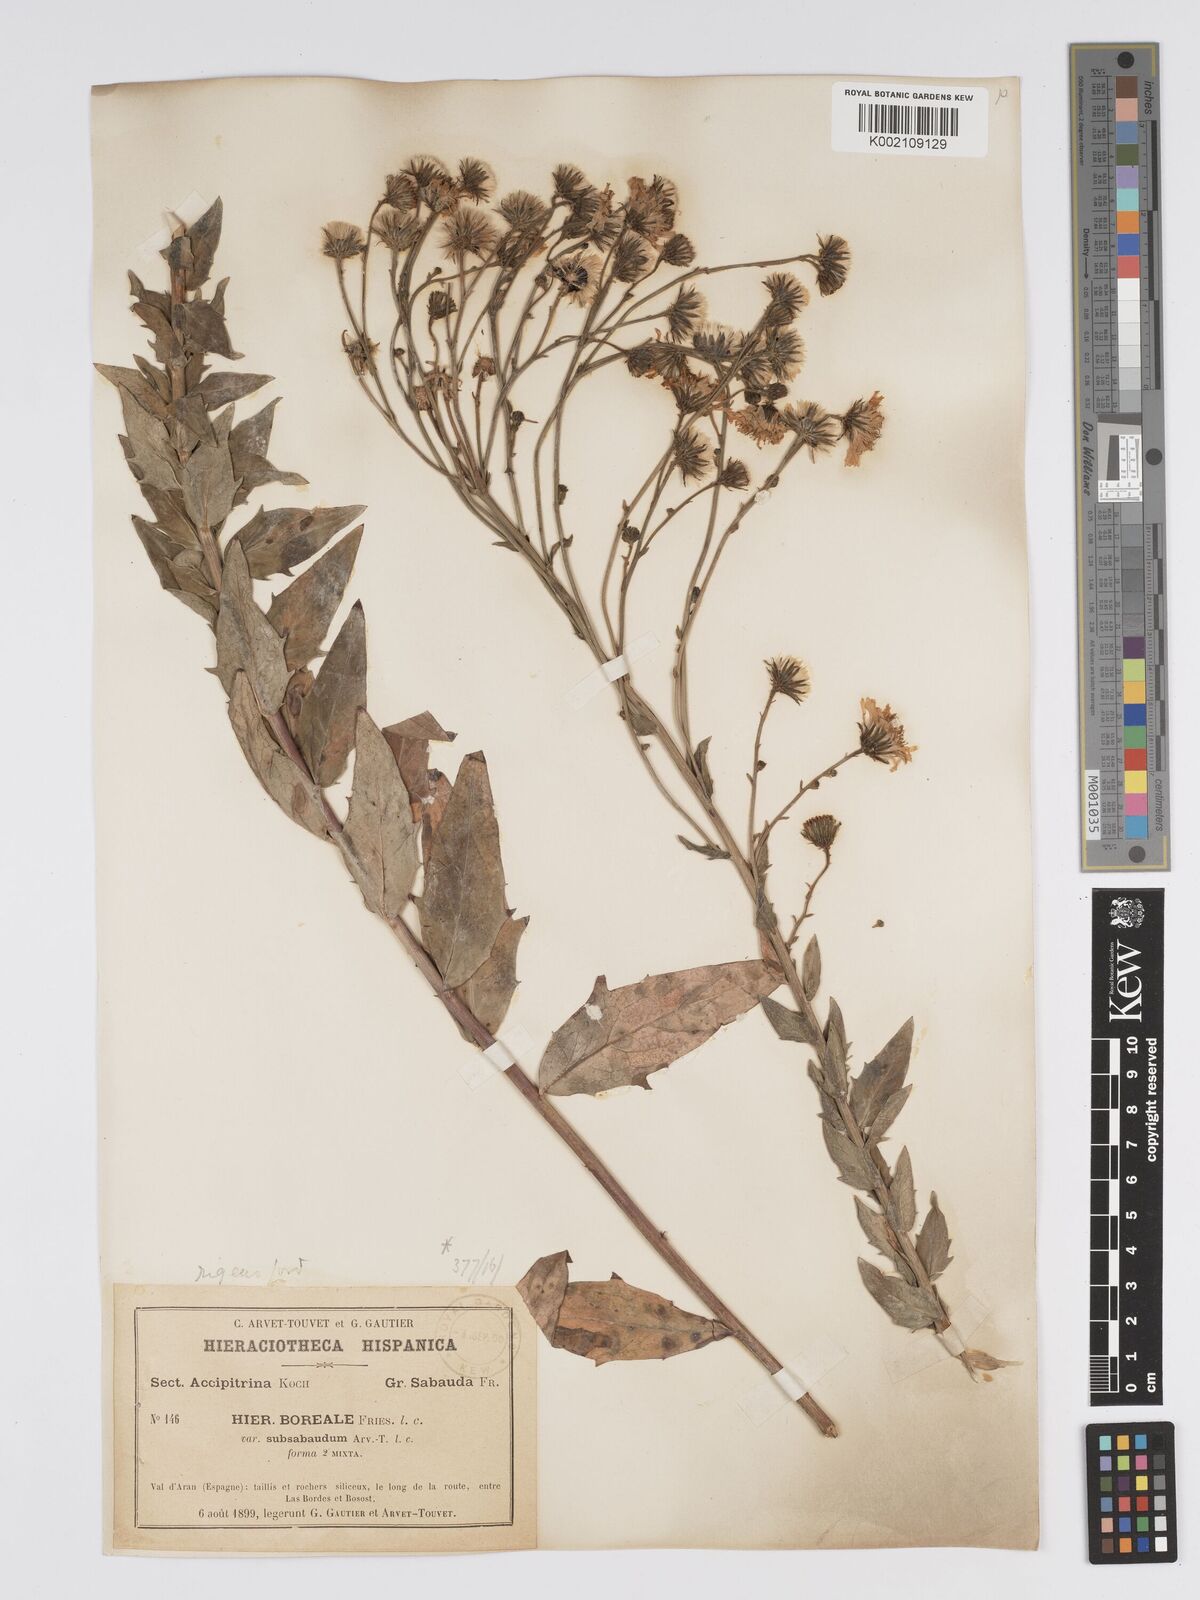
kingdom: Plantae
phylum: Tracheophyta
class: Magnoliopsida
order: Asterales
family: Asteraceae
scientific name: Asteraceae
